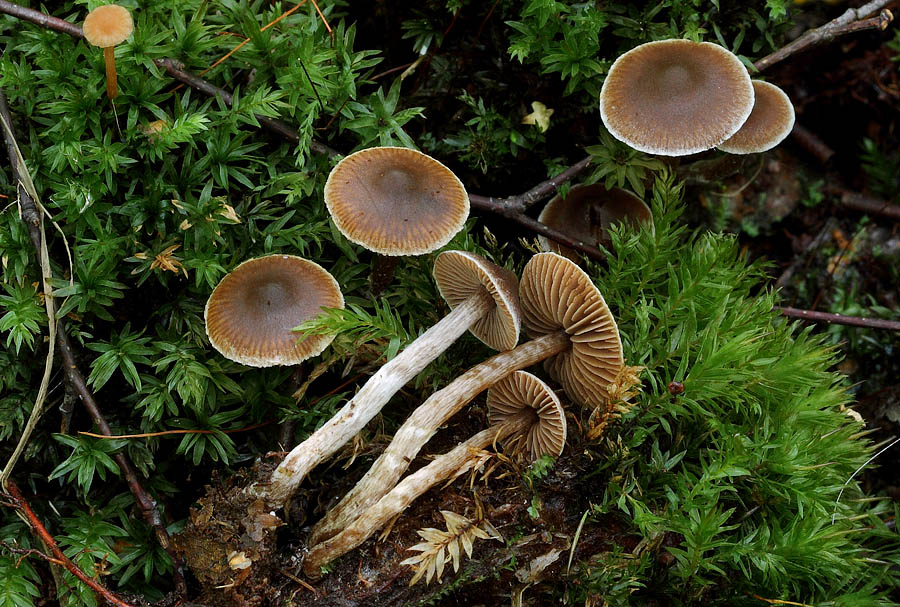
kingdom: Fungi
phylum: Basidiomycota
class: Agaricomycetes
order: Agaricales
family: Cortinariaceae
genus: Cortinarius
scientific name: Cortinarius fragrantissimus
